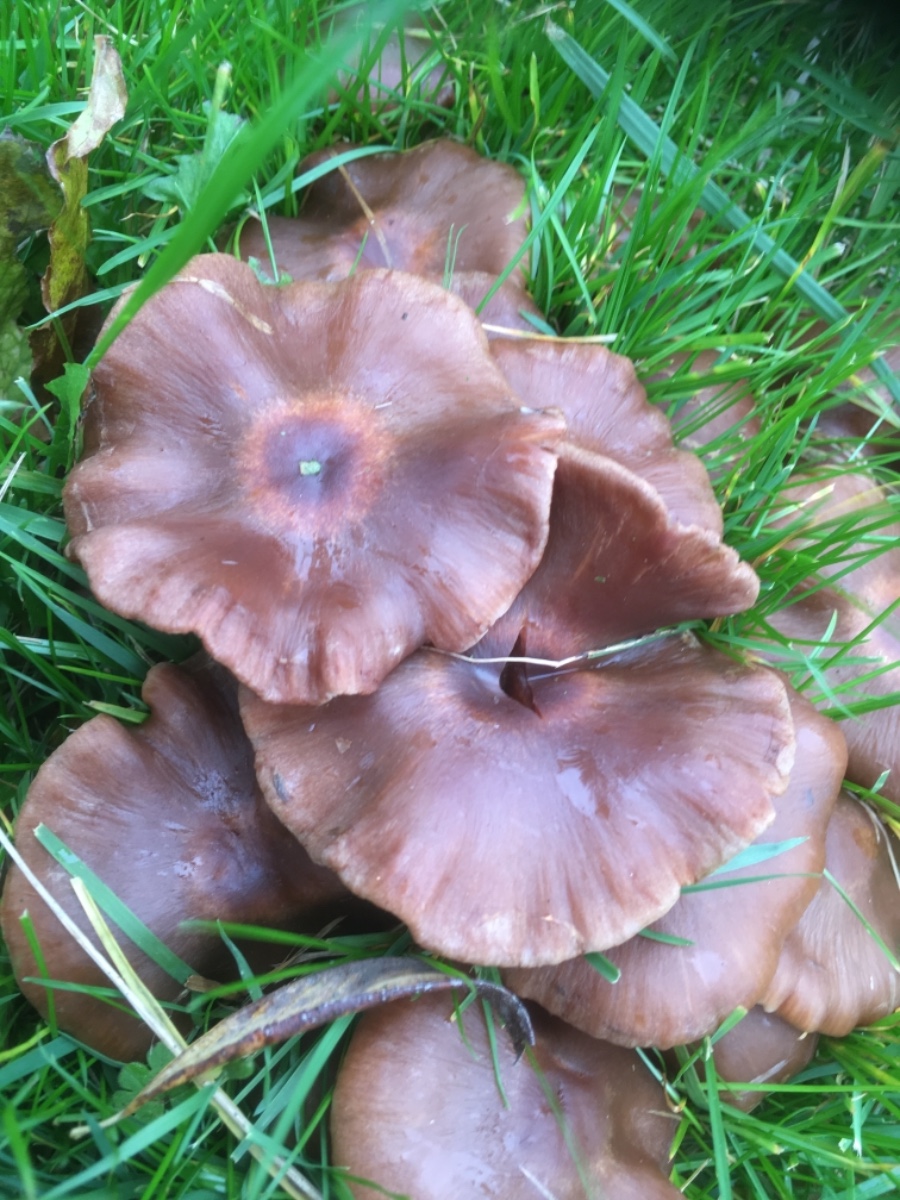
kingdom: Fungi
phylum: Basidiomycota
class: Agaricomycetes
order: Agaricales
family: Cortinariaceae
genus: Cortinarius
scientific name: Cortinarius saturninus
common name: brunviolet slørhat
